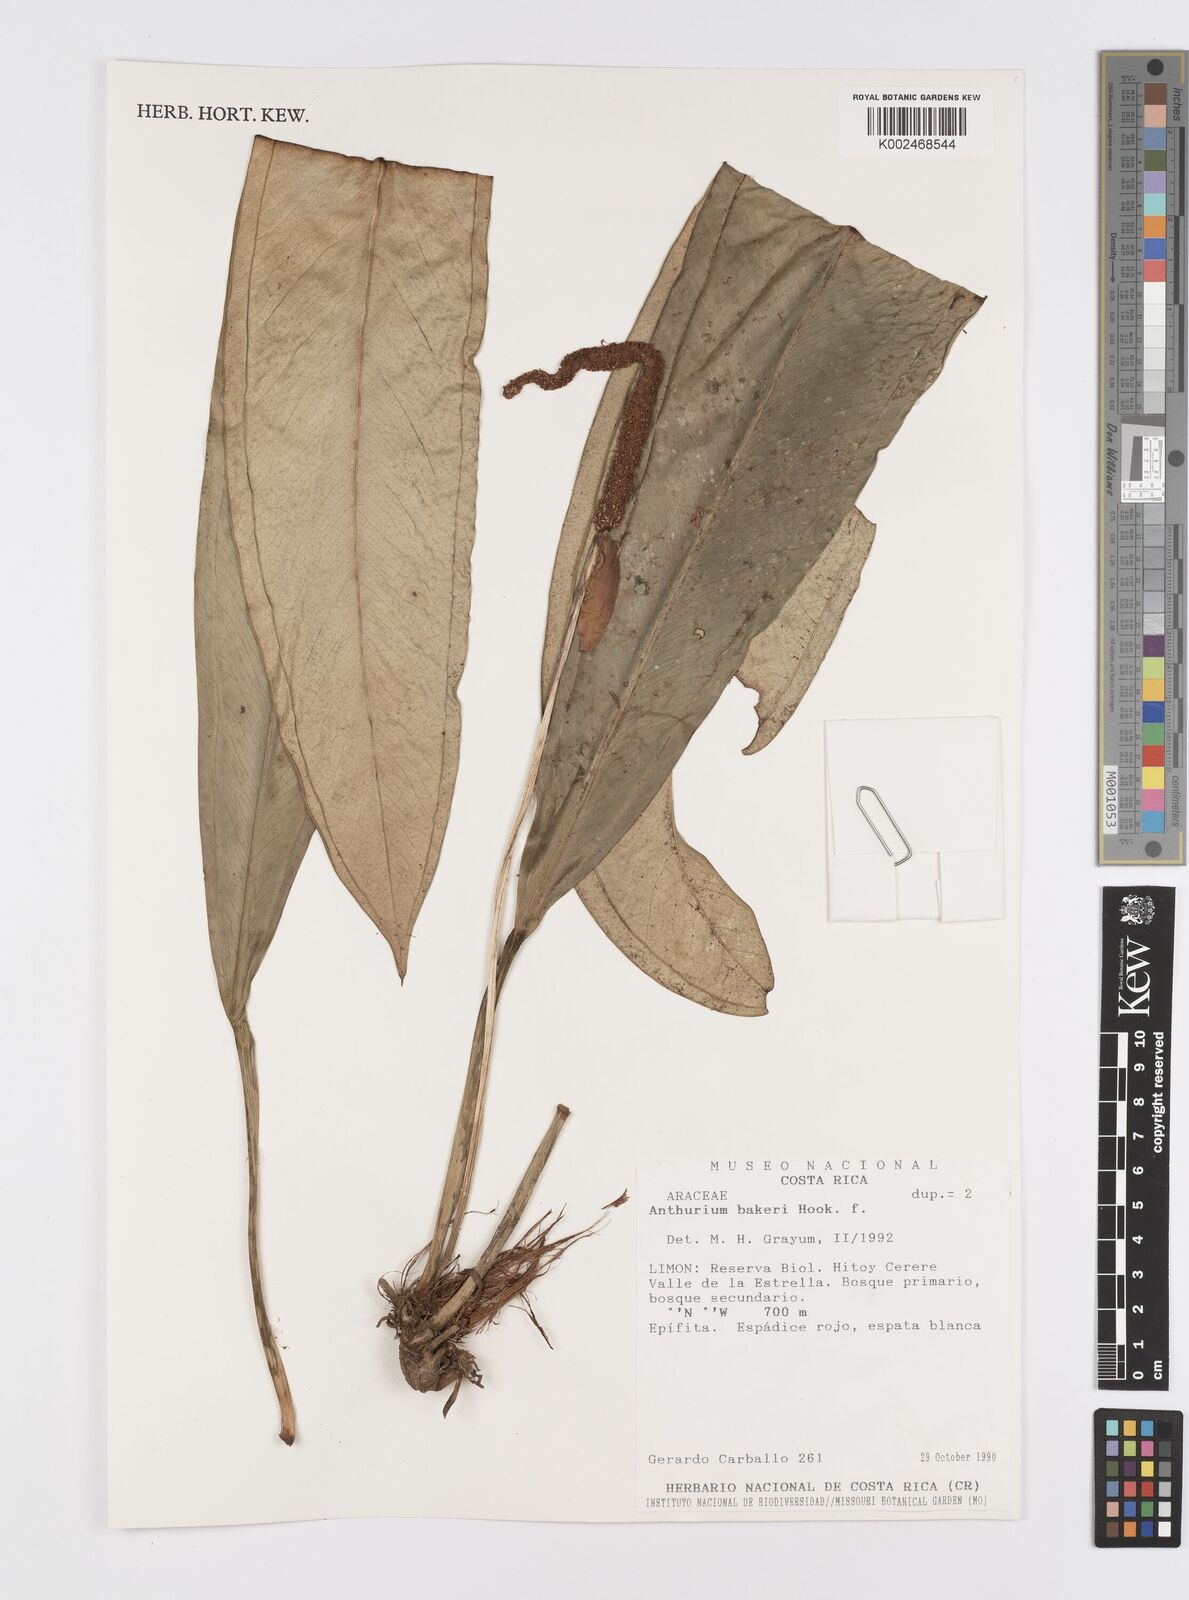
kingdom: Plantae
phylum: Tracheophyta
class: Liliopsida
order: Alismatales
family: Araceae
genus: Anthurium
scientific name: Anthurium bakeri
